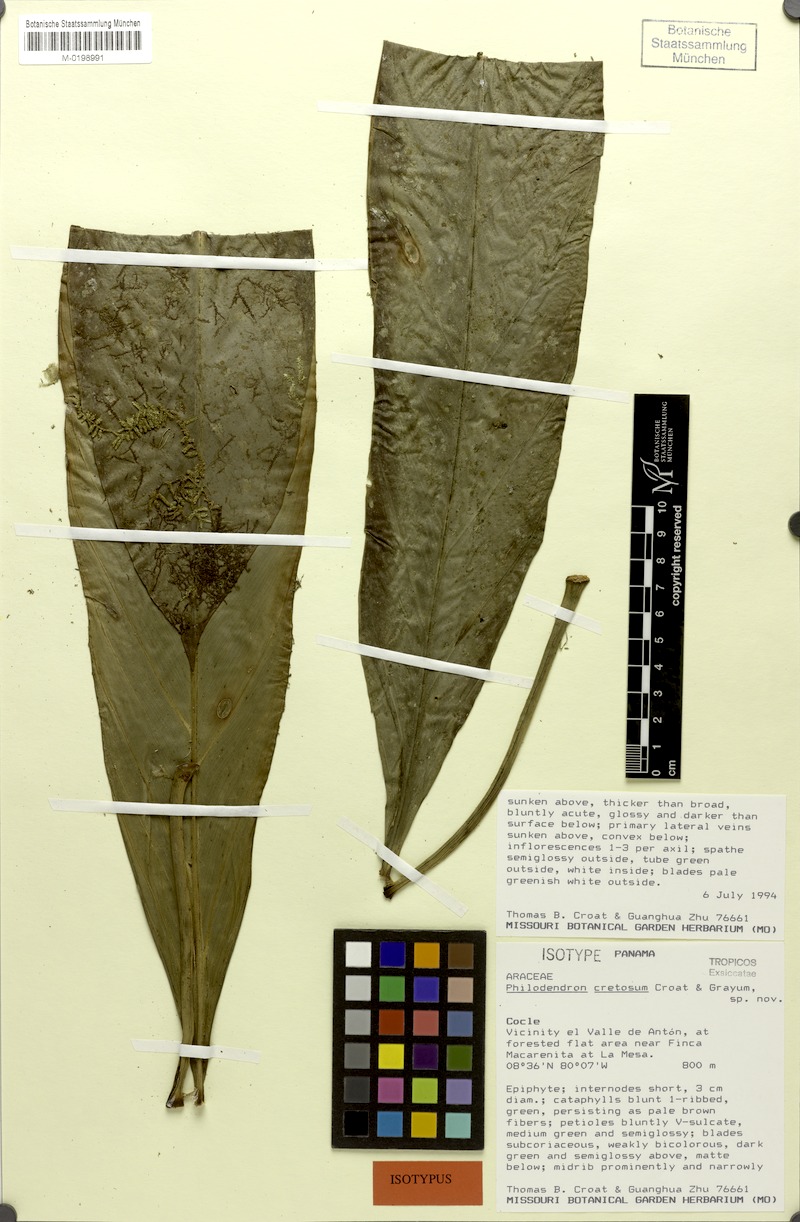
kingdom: Plantae
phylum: Tracheophyta
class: Liliopsida
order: Alismatales
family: Araceae
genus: Philodendron
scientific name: Philodendron cretosum
